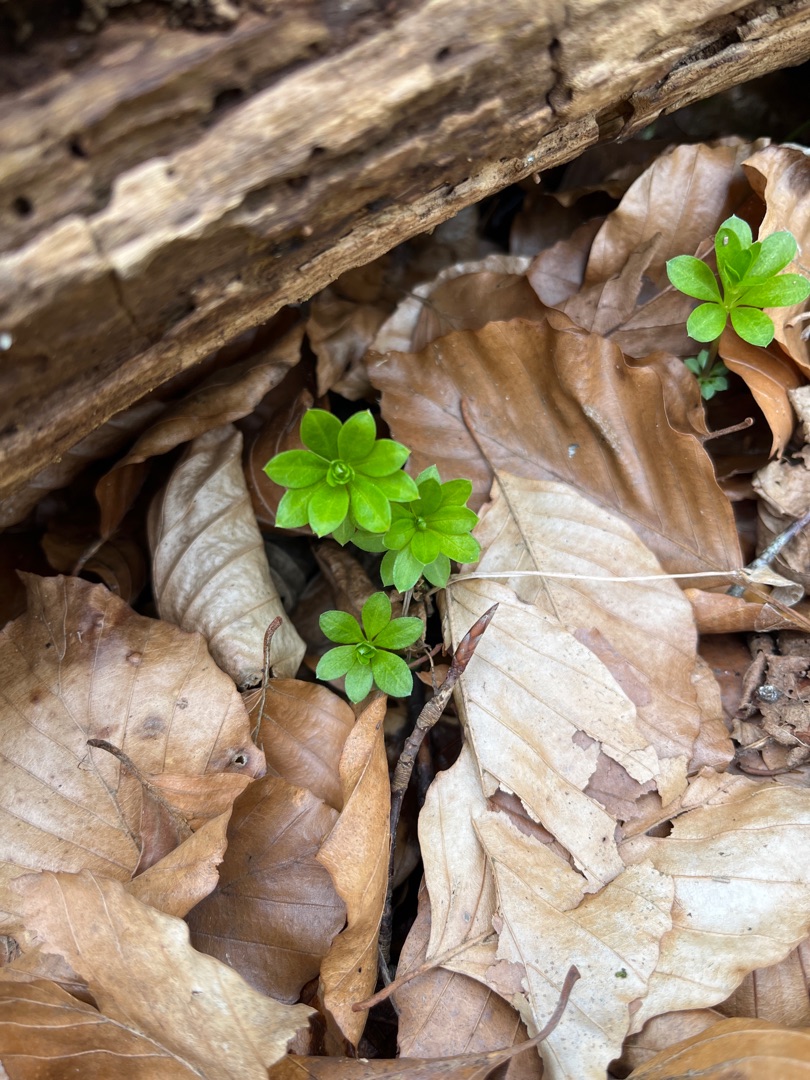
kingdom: Plantae
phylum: Tracheophyta
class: Magnoliopsida
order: Gentianales
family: Rubiaceae
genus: Galium
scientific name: Galium odoratum
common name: Skovmærke
